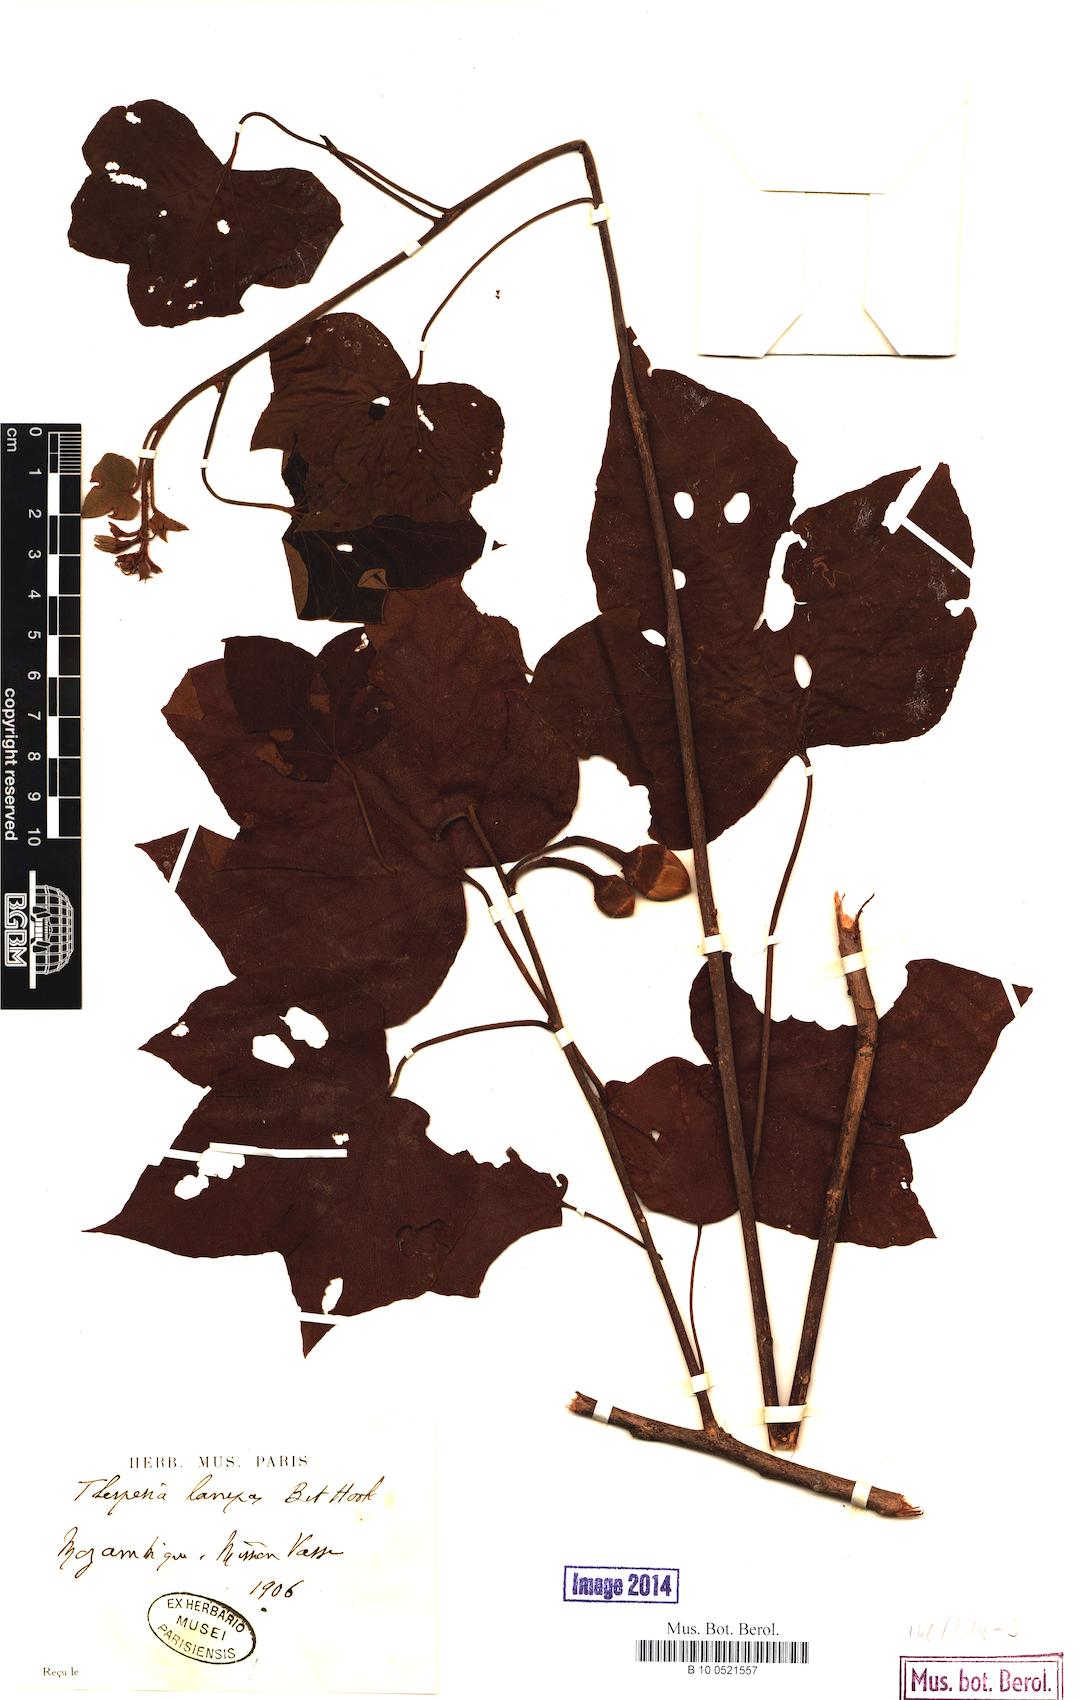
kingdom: Plantae
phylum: Tracheophyta
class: Magnoliopsida
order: Malvales
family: Malvaceae
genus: Thespesia
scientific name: Thespesia lampas
